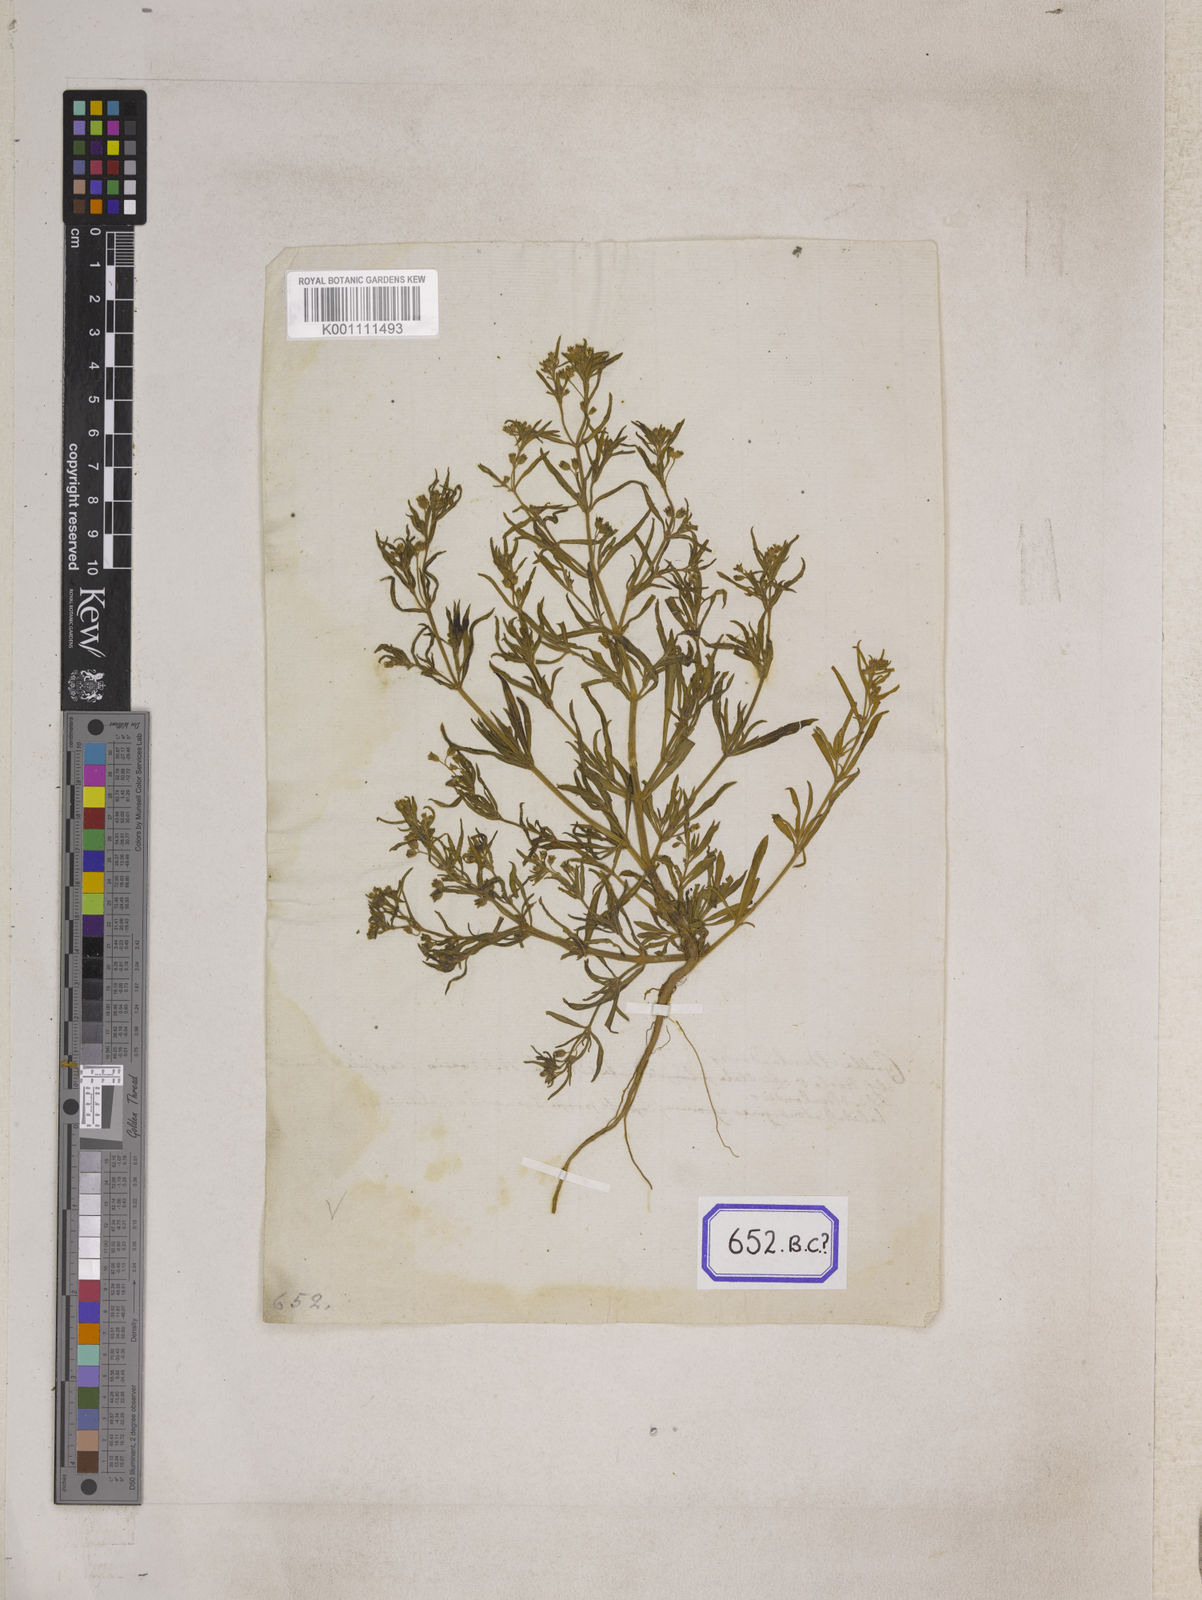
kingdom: Plantae
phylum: Tracheophyta
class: Magnoliopsida
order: Caryophyllales
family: Molluginaceae
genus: Mollugo
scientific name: Mollugo disticha
